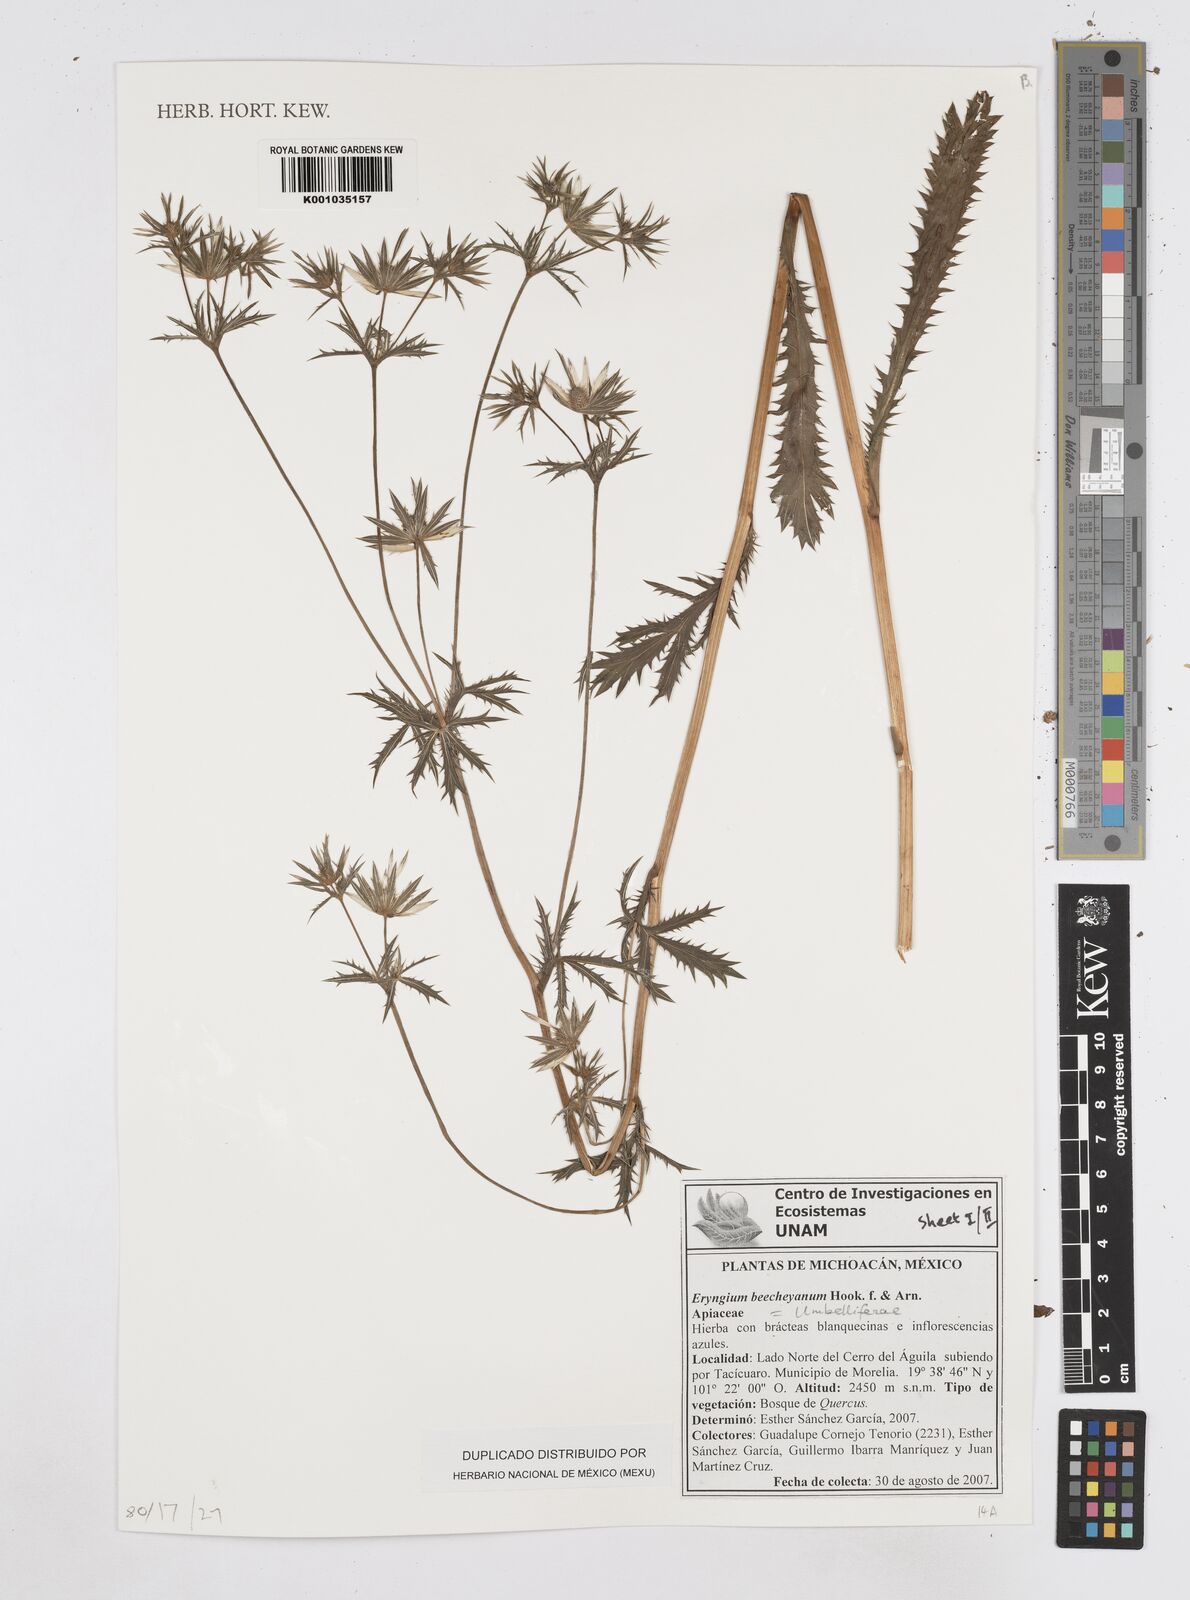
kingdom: Plantae
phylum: Tracheophyta
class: Magnoliopsida
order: Apiales
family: Apiaceae
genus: Eryngium
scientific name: Eryngium beecheyanum
